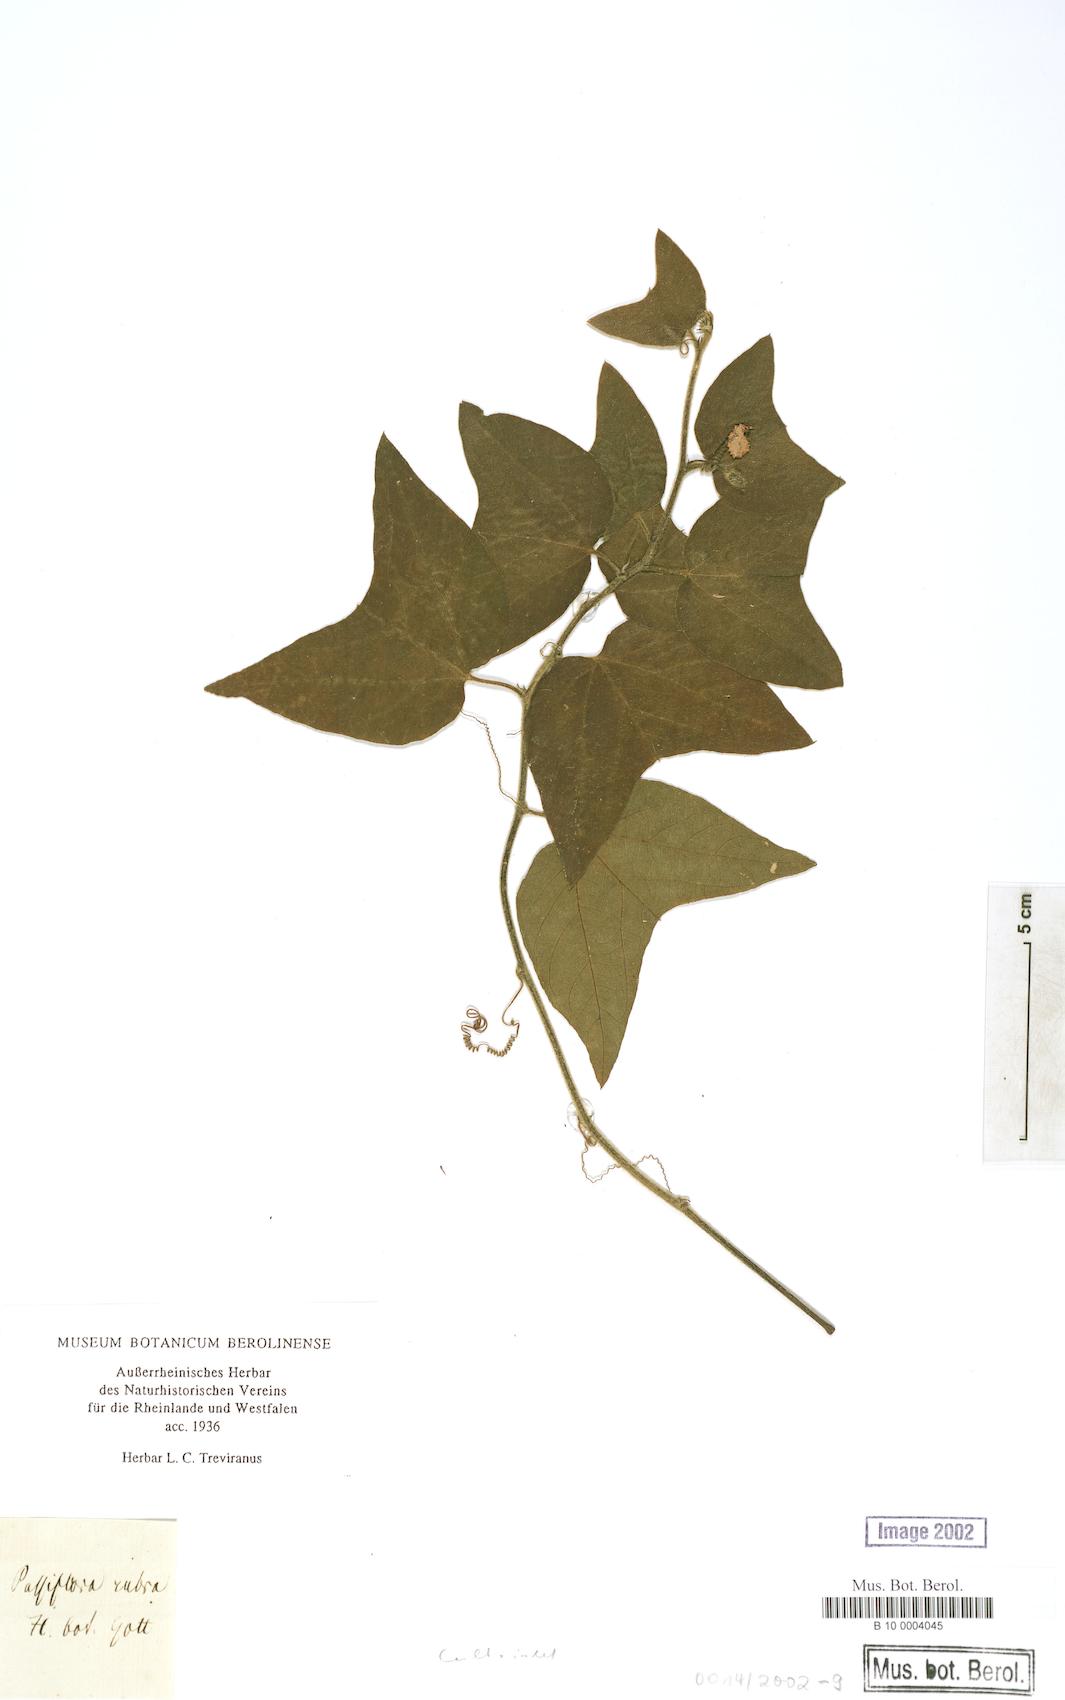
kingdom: Plantae
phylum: Tracheophyta
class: Magnoliopsida
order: Malpighiales
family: Passifloraceae
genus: Passiflora
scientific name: Passiflora rubra
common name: Snakeberry vine
